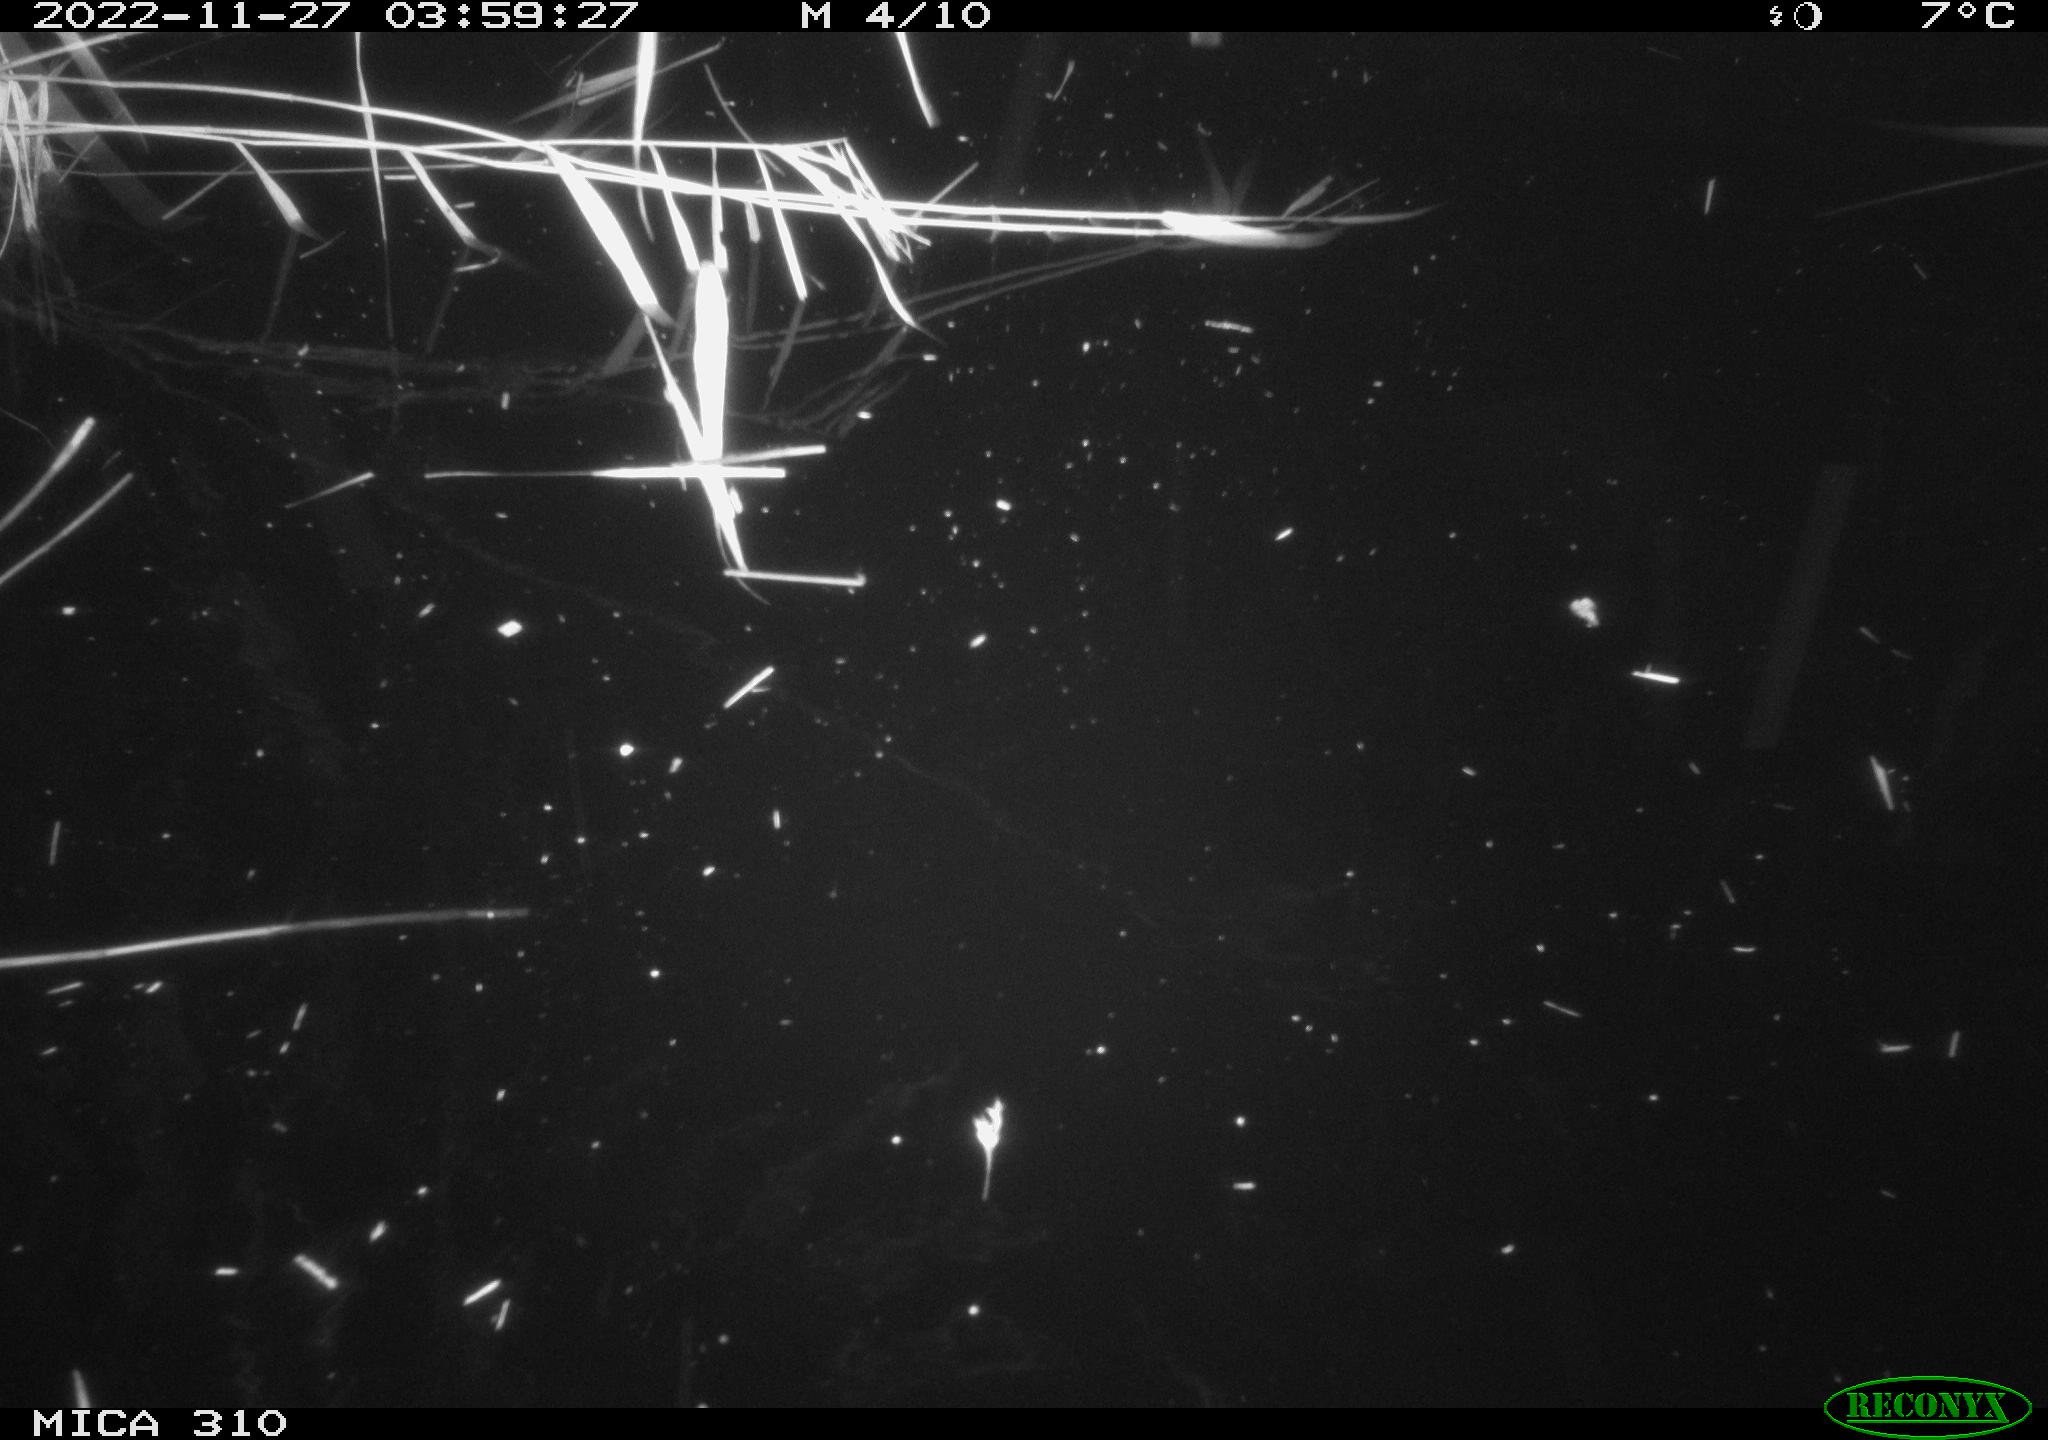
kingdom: Animalia
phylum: Chordata
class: Mammalia
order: Rodentia
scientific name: Rodentia
